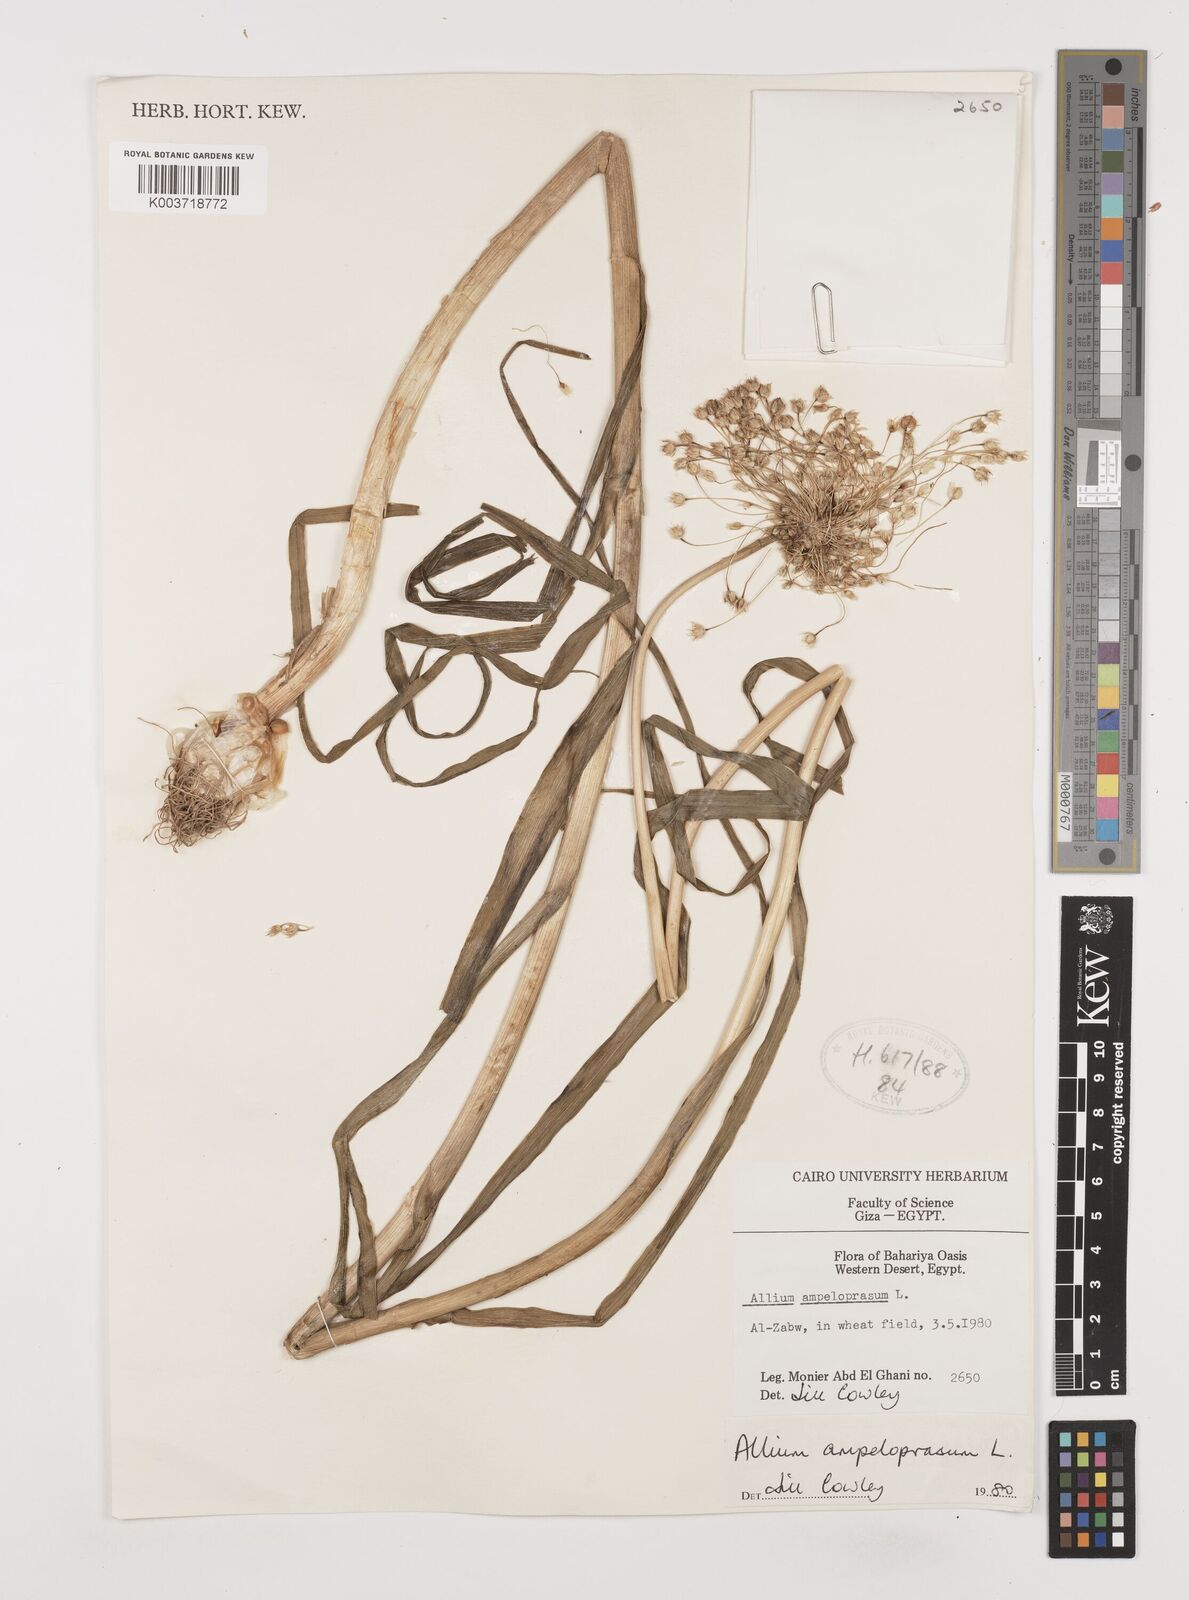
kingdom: Plantae
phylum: Tracheophyta
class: Liliopsida
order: Asparagales
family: Amaryllidaceae
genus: Allium
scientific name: Allium rotundum
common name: Sand leek
